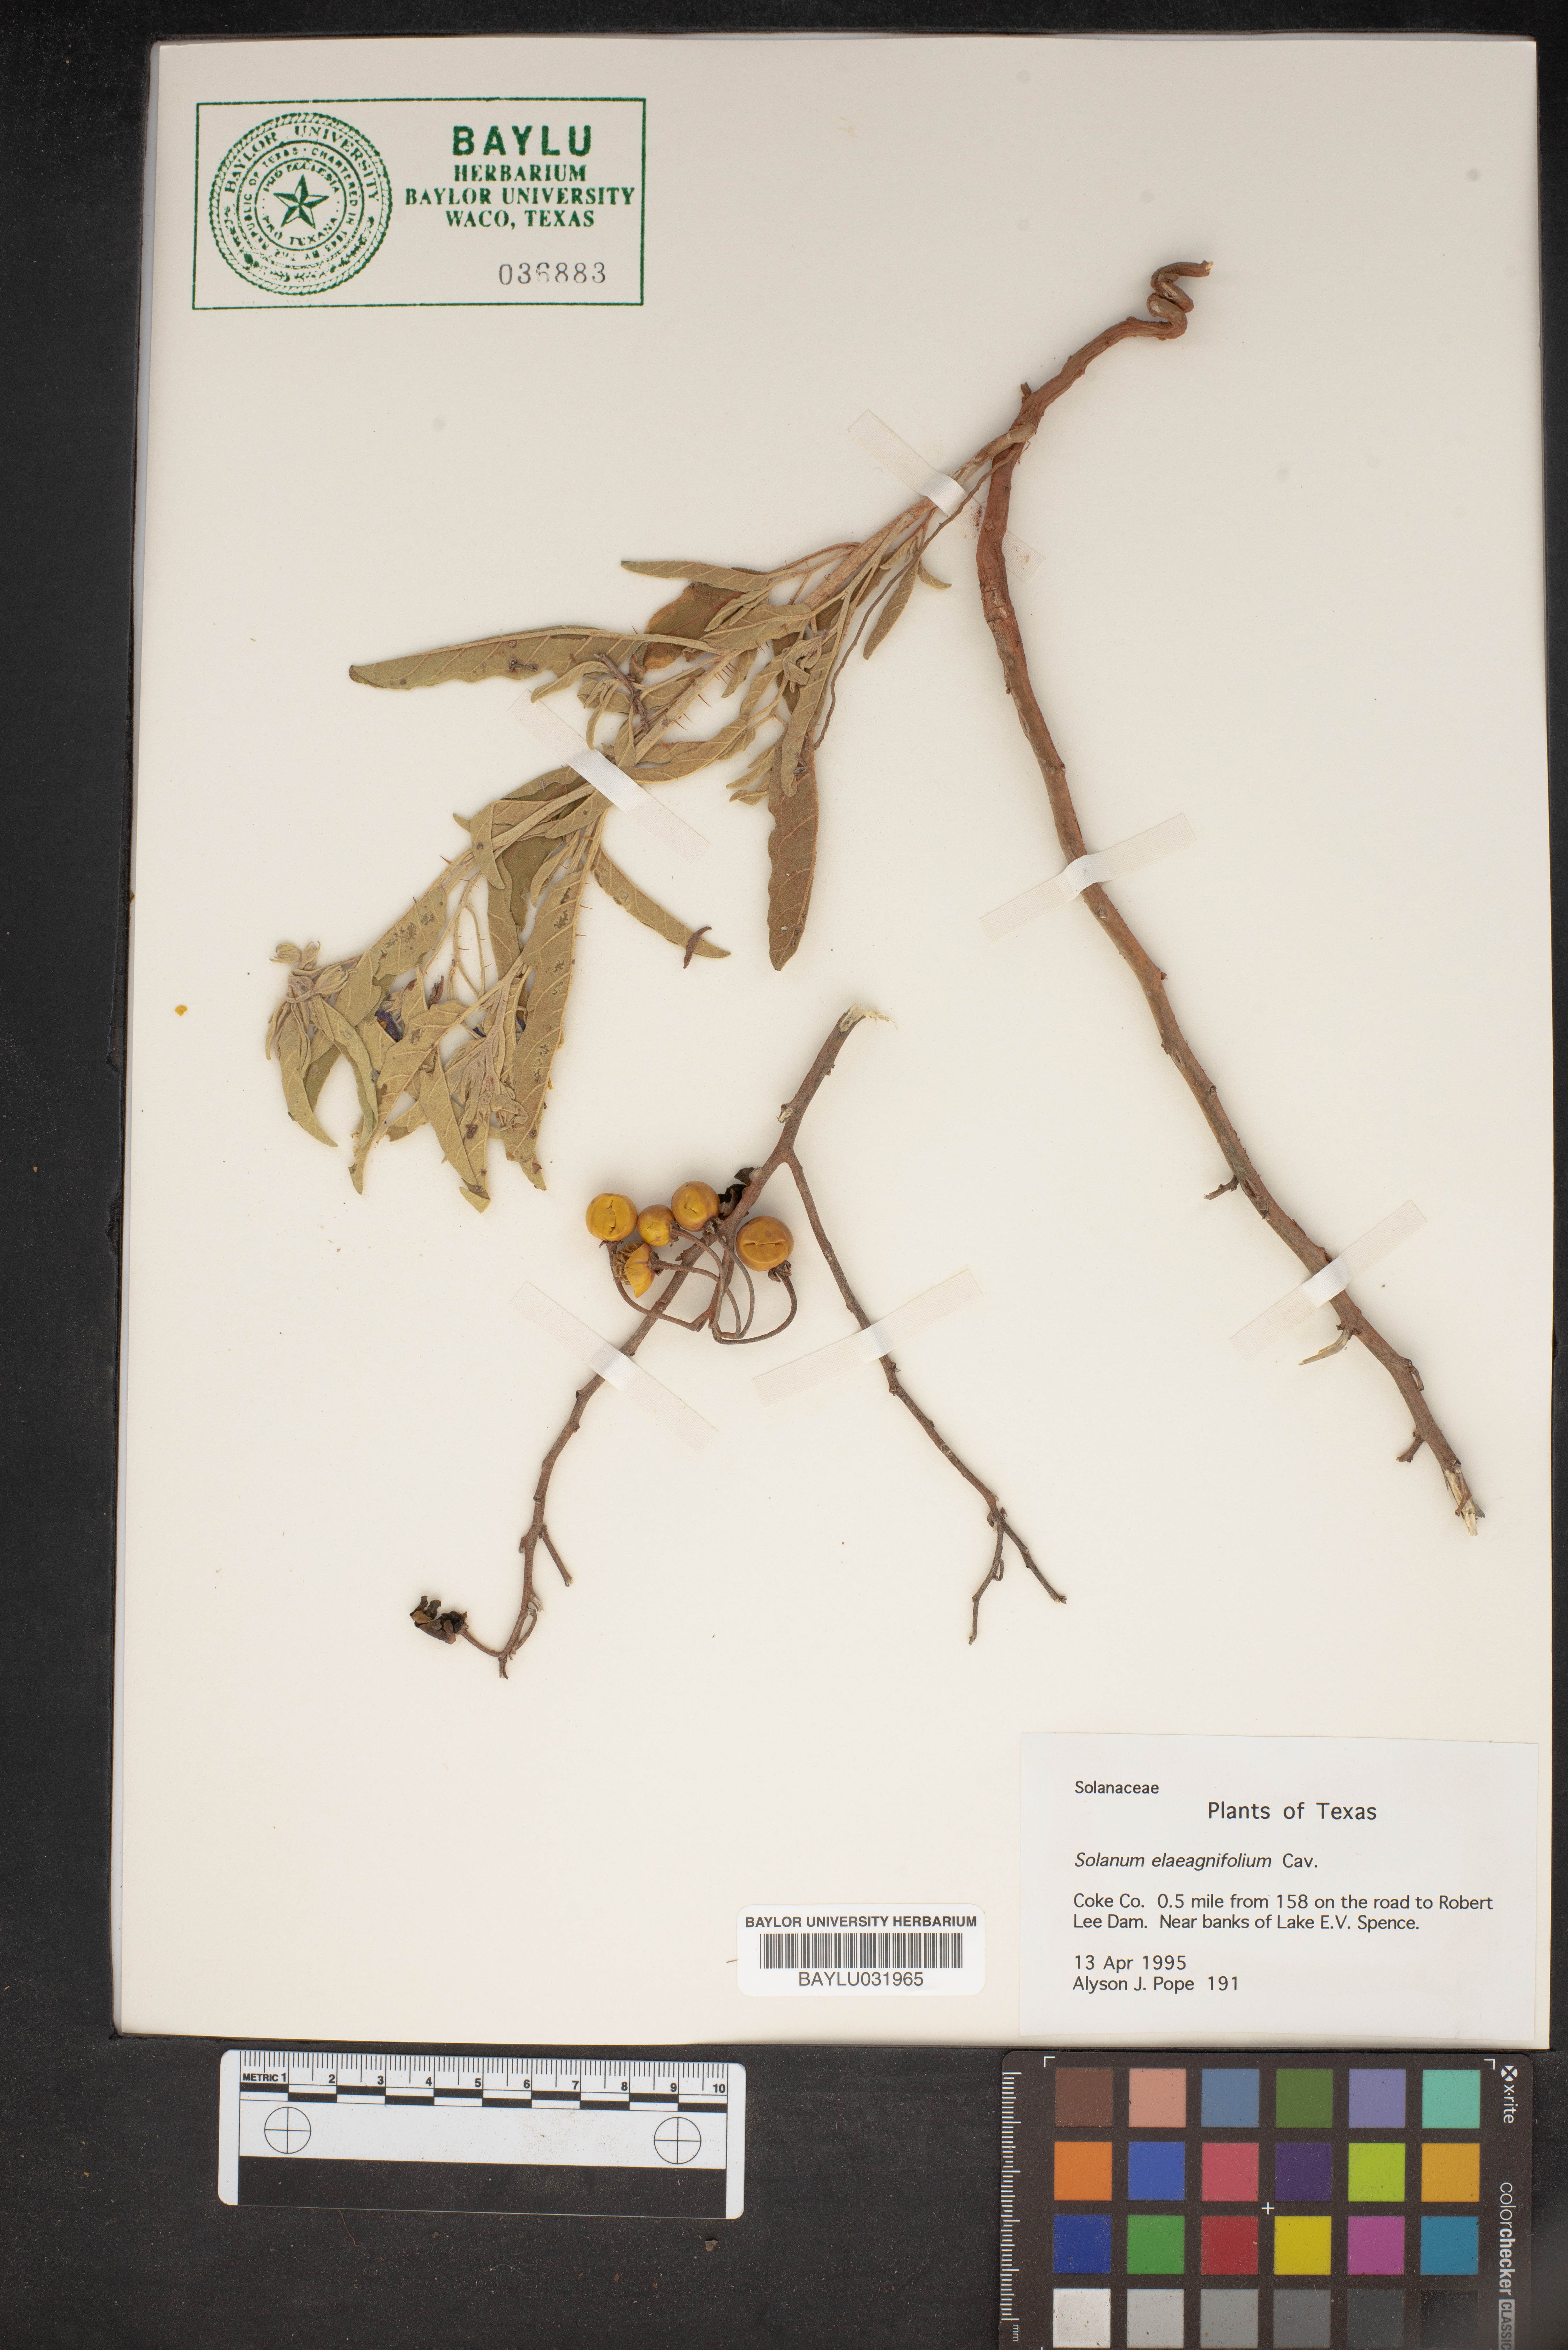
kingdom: Plantae
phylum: Tracheophyta
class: Magnoliopsida
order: Solanales
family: Solanaceae
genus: Solanum
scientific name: Solanum elaeagnifolium
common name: Silverleaf nightshade
